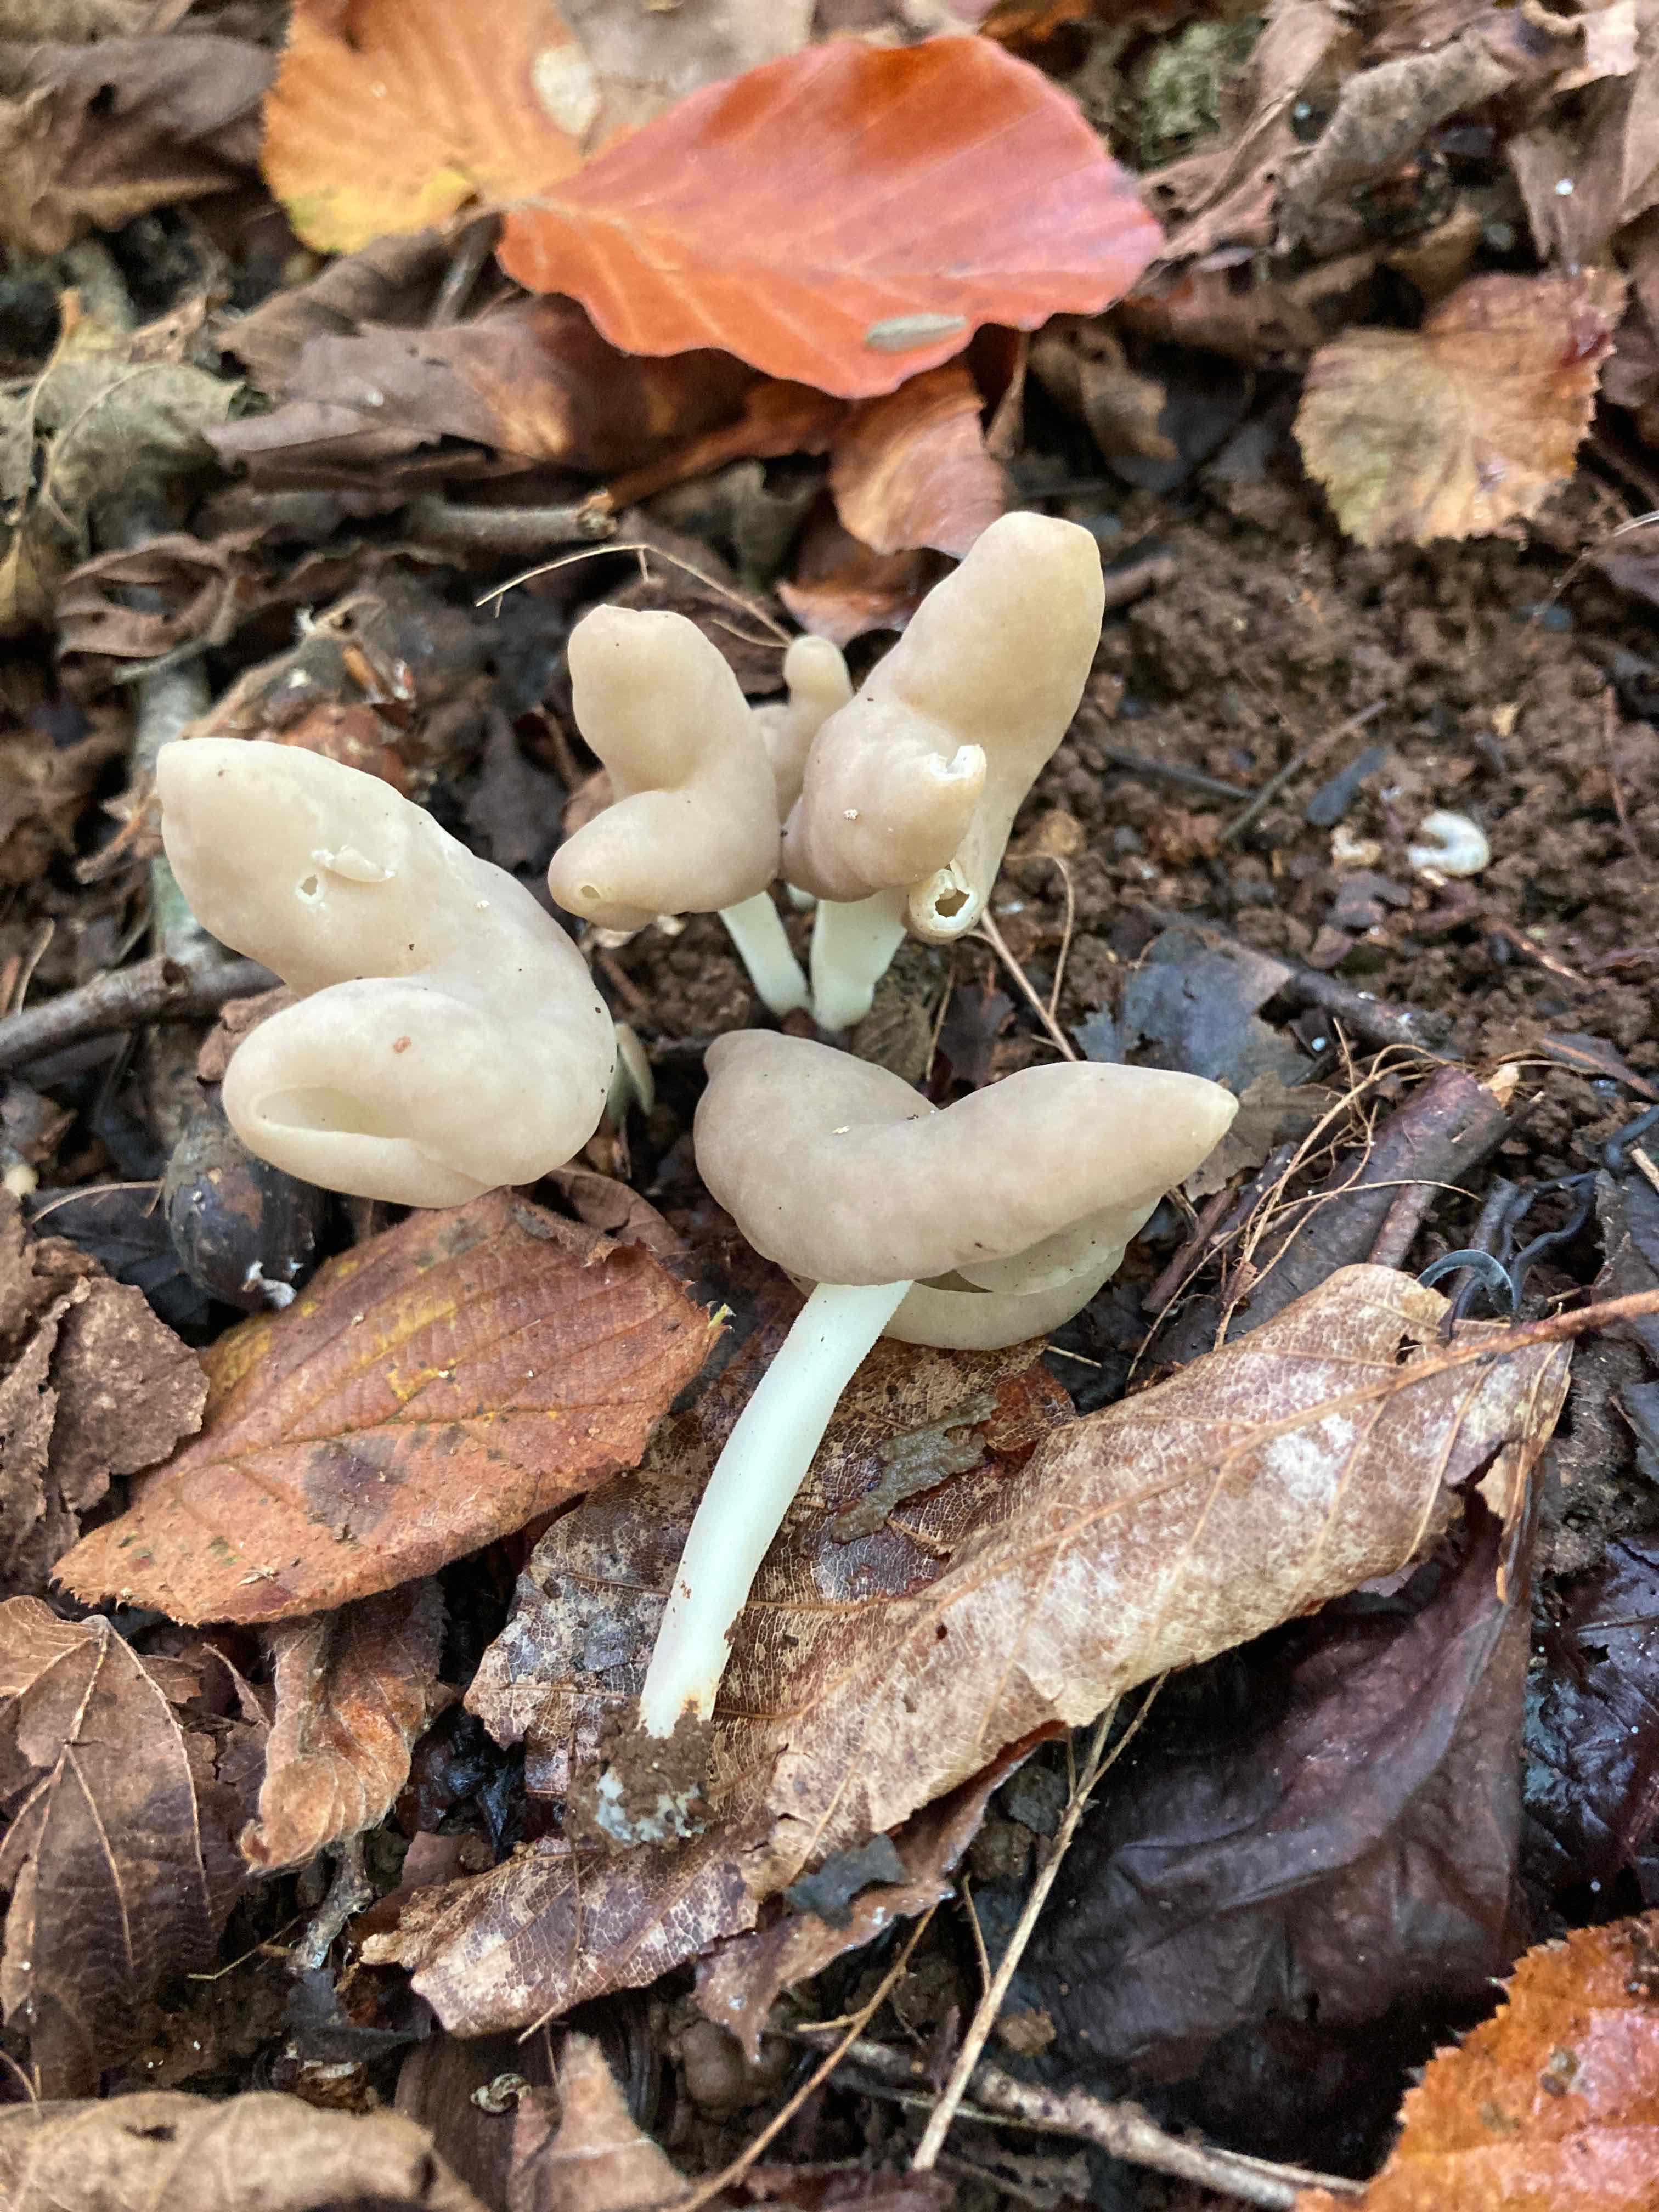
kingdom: Fungi
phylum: Ascomycota
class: Pezizomycetes
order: Pezizales
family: Helvellaceae
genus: Helvella
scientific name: Helvella elastica
